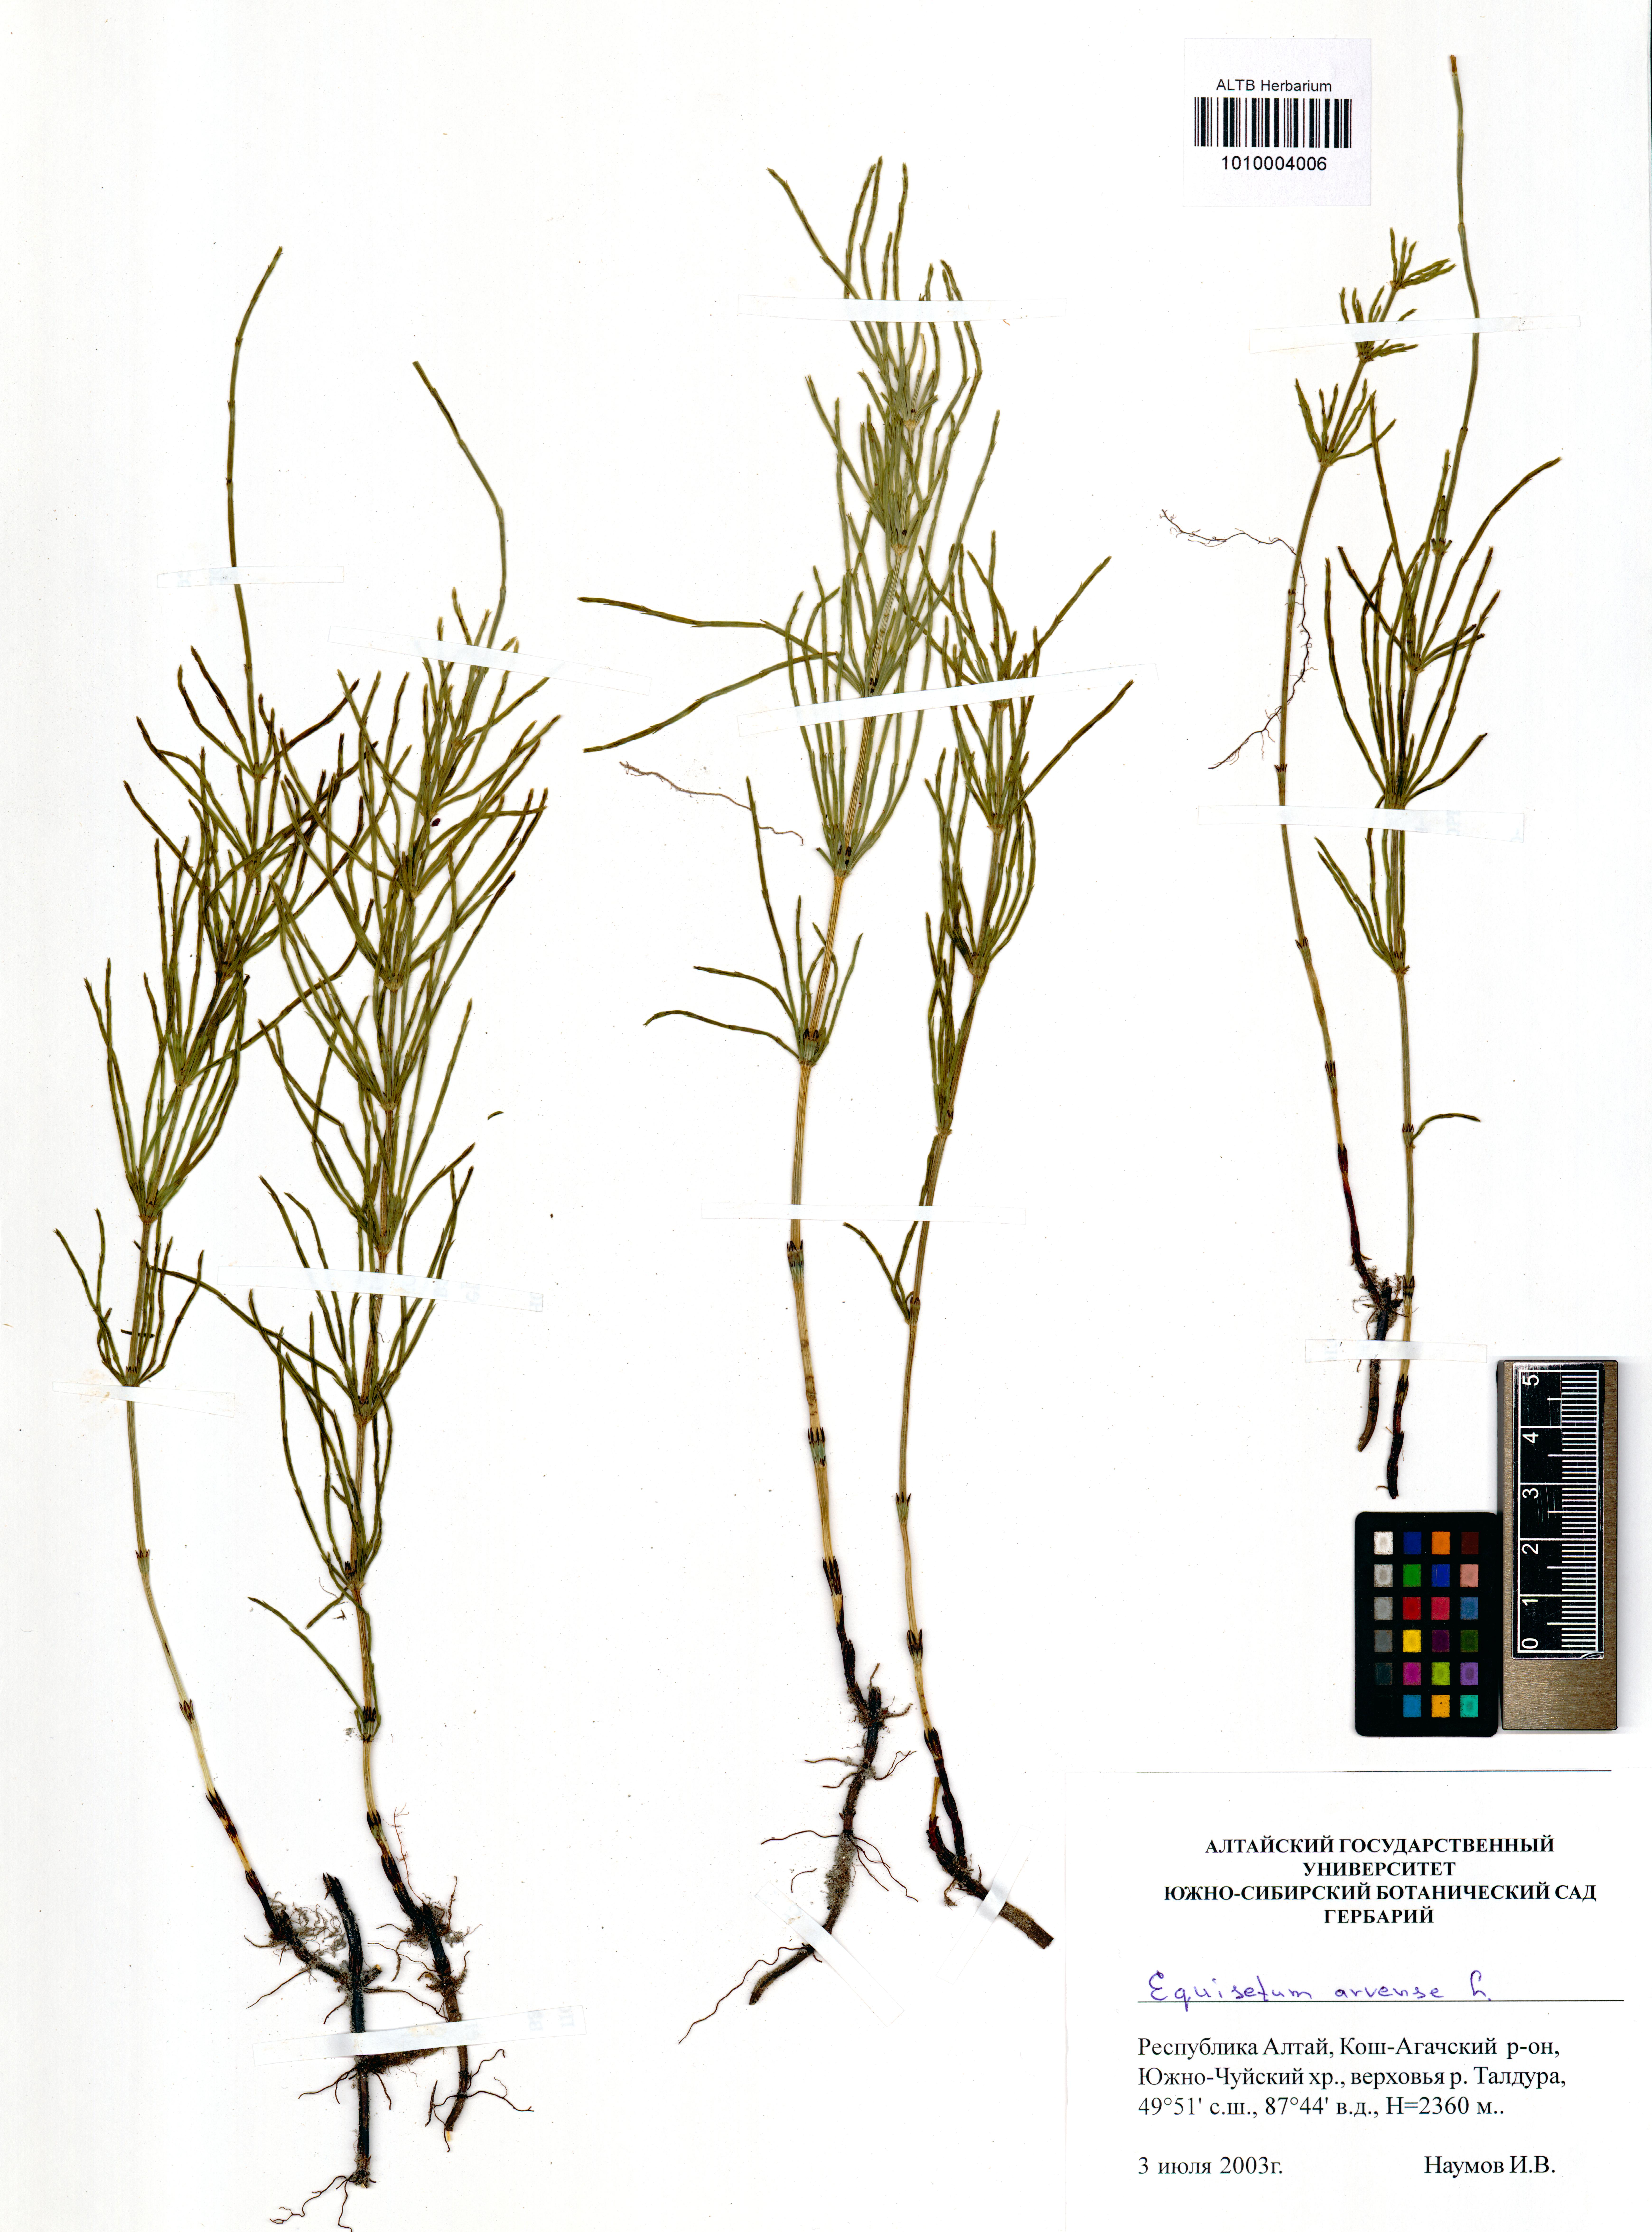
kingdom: Plantae
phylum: Tracheophyta
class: Polypodiopsida
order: Equisetales
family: Equisetaceae
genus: Equisetum
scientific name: Equisetum arvense
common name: Field horsetail
